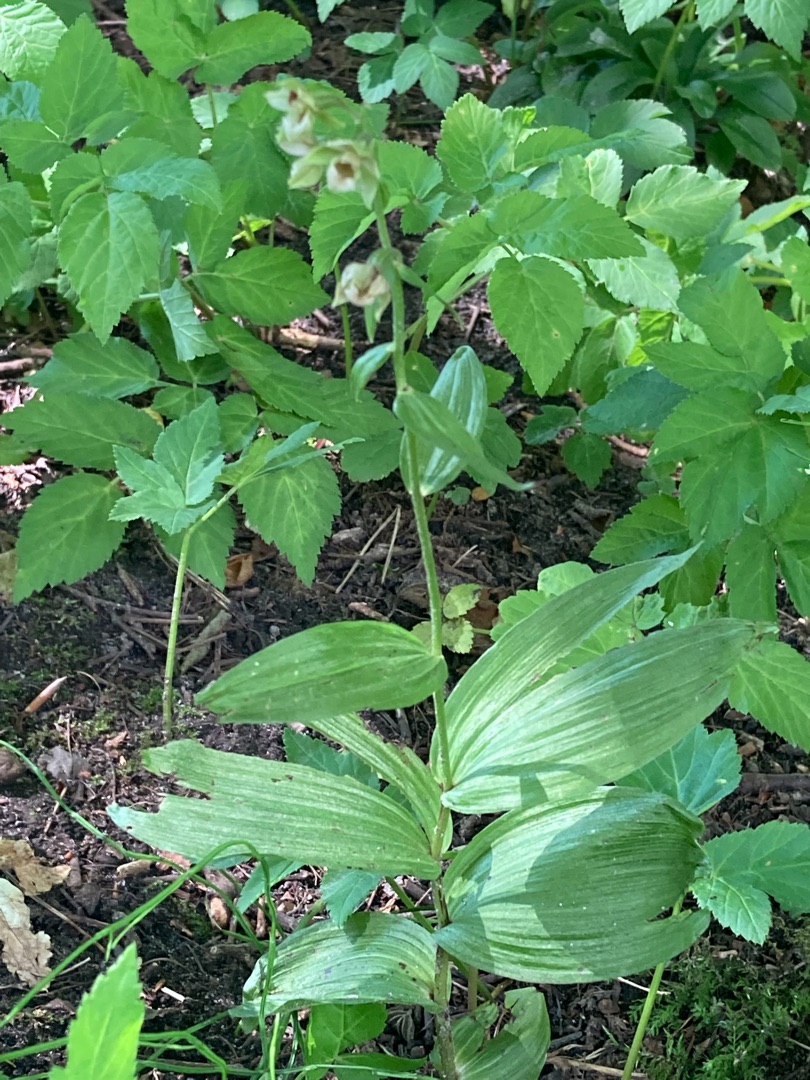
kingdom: Plantae
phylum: Tracheophyta
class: Liliopsida
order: Asparagales
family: Orchidaceae
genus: Epipactis
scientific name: Epipactis helleborine
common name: Skov-hullæbe
